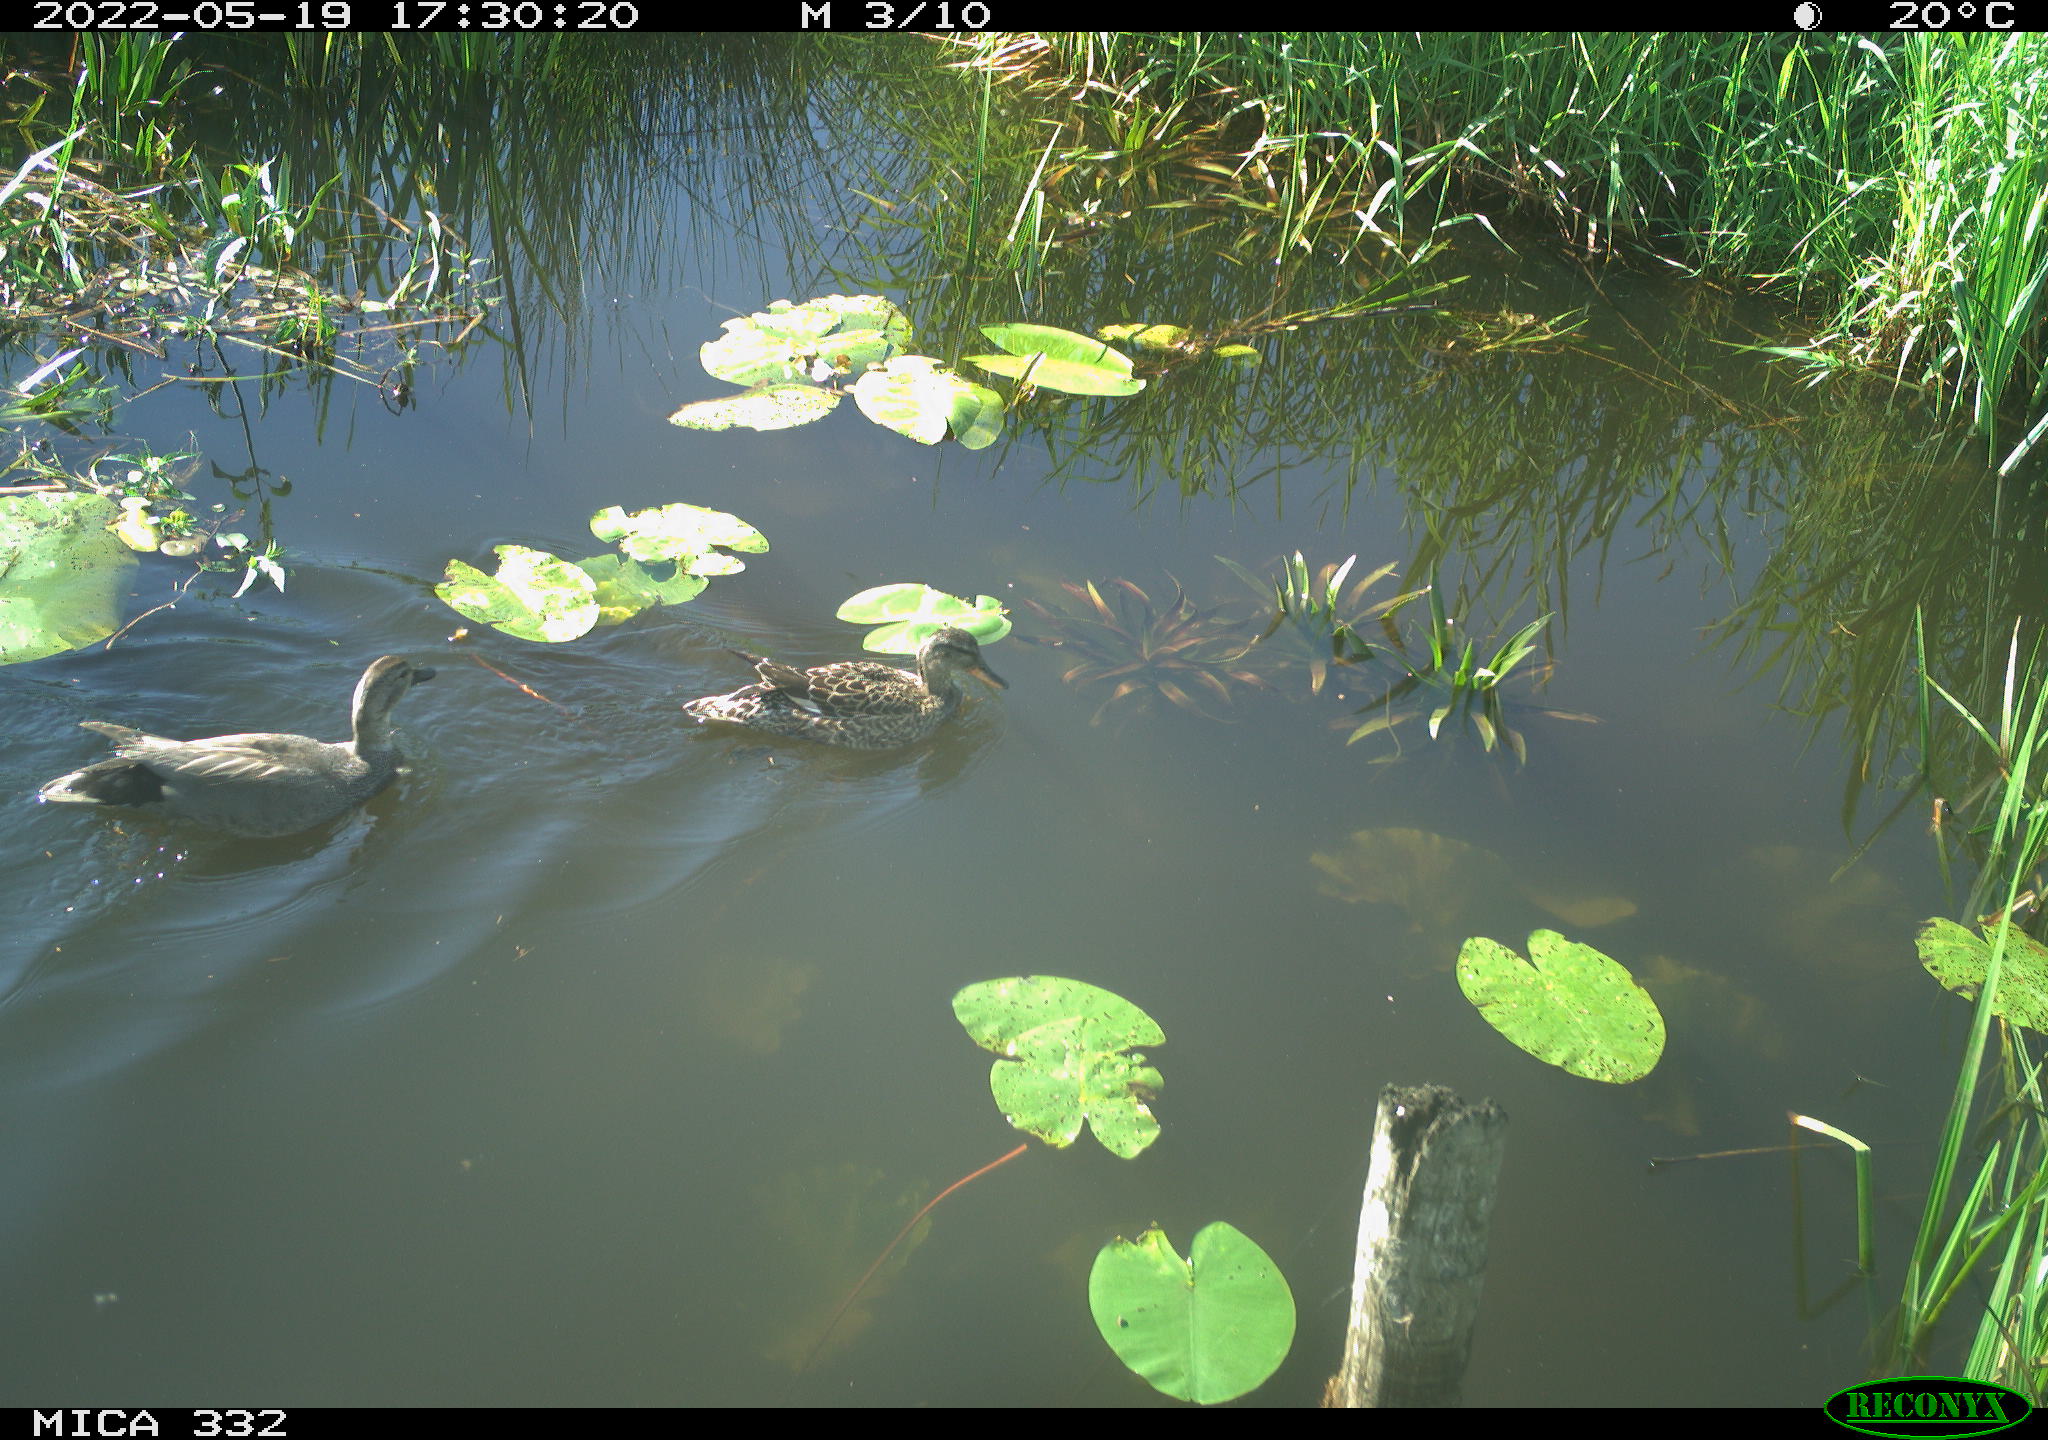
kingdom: Animalia
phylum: Chordata
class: Aves
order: Anseriformes
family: Anatidae
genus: Anas
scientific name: Anas platyrhynchos
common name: Mallard
